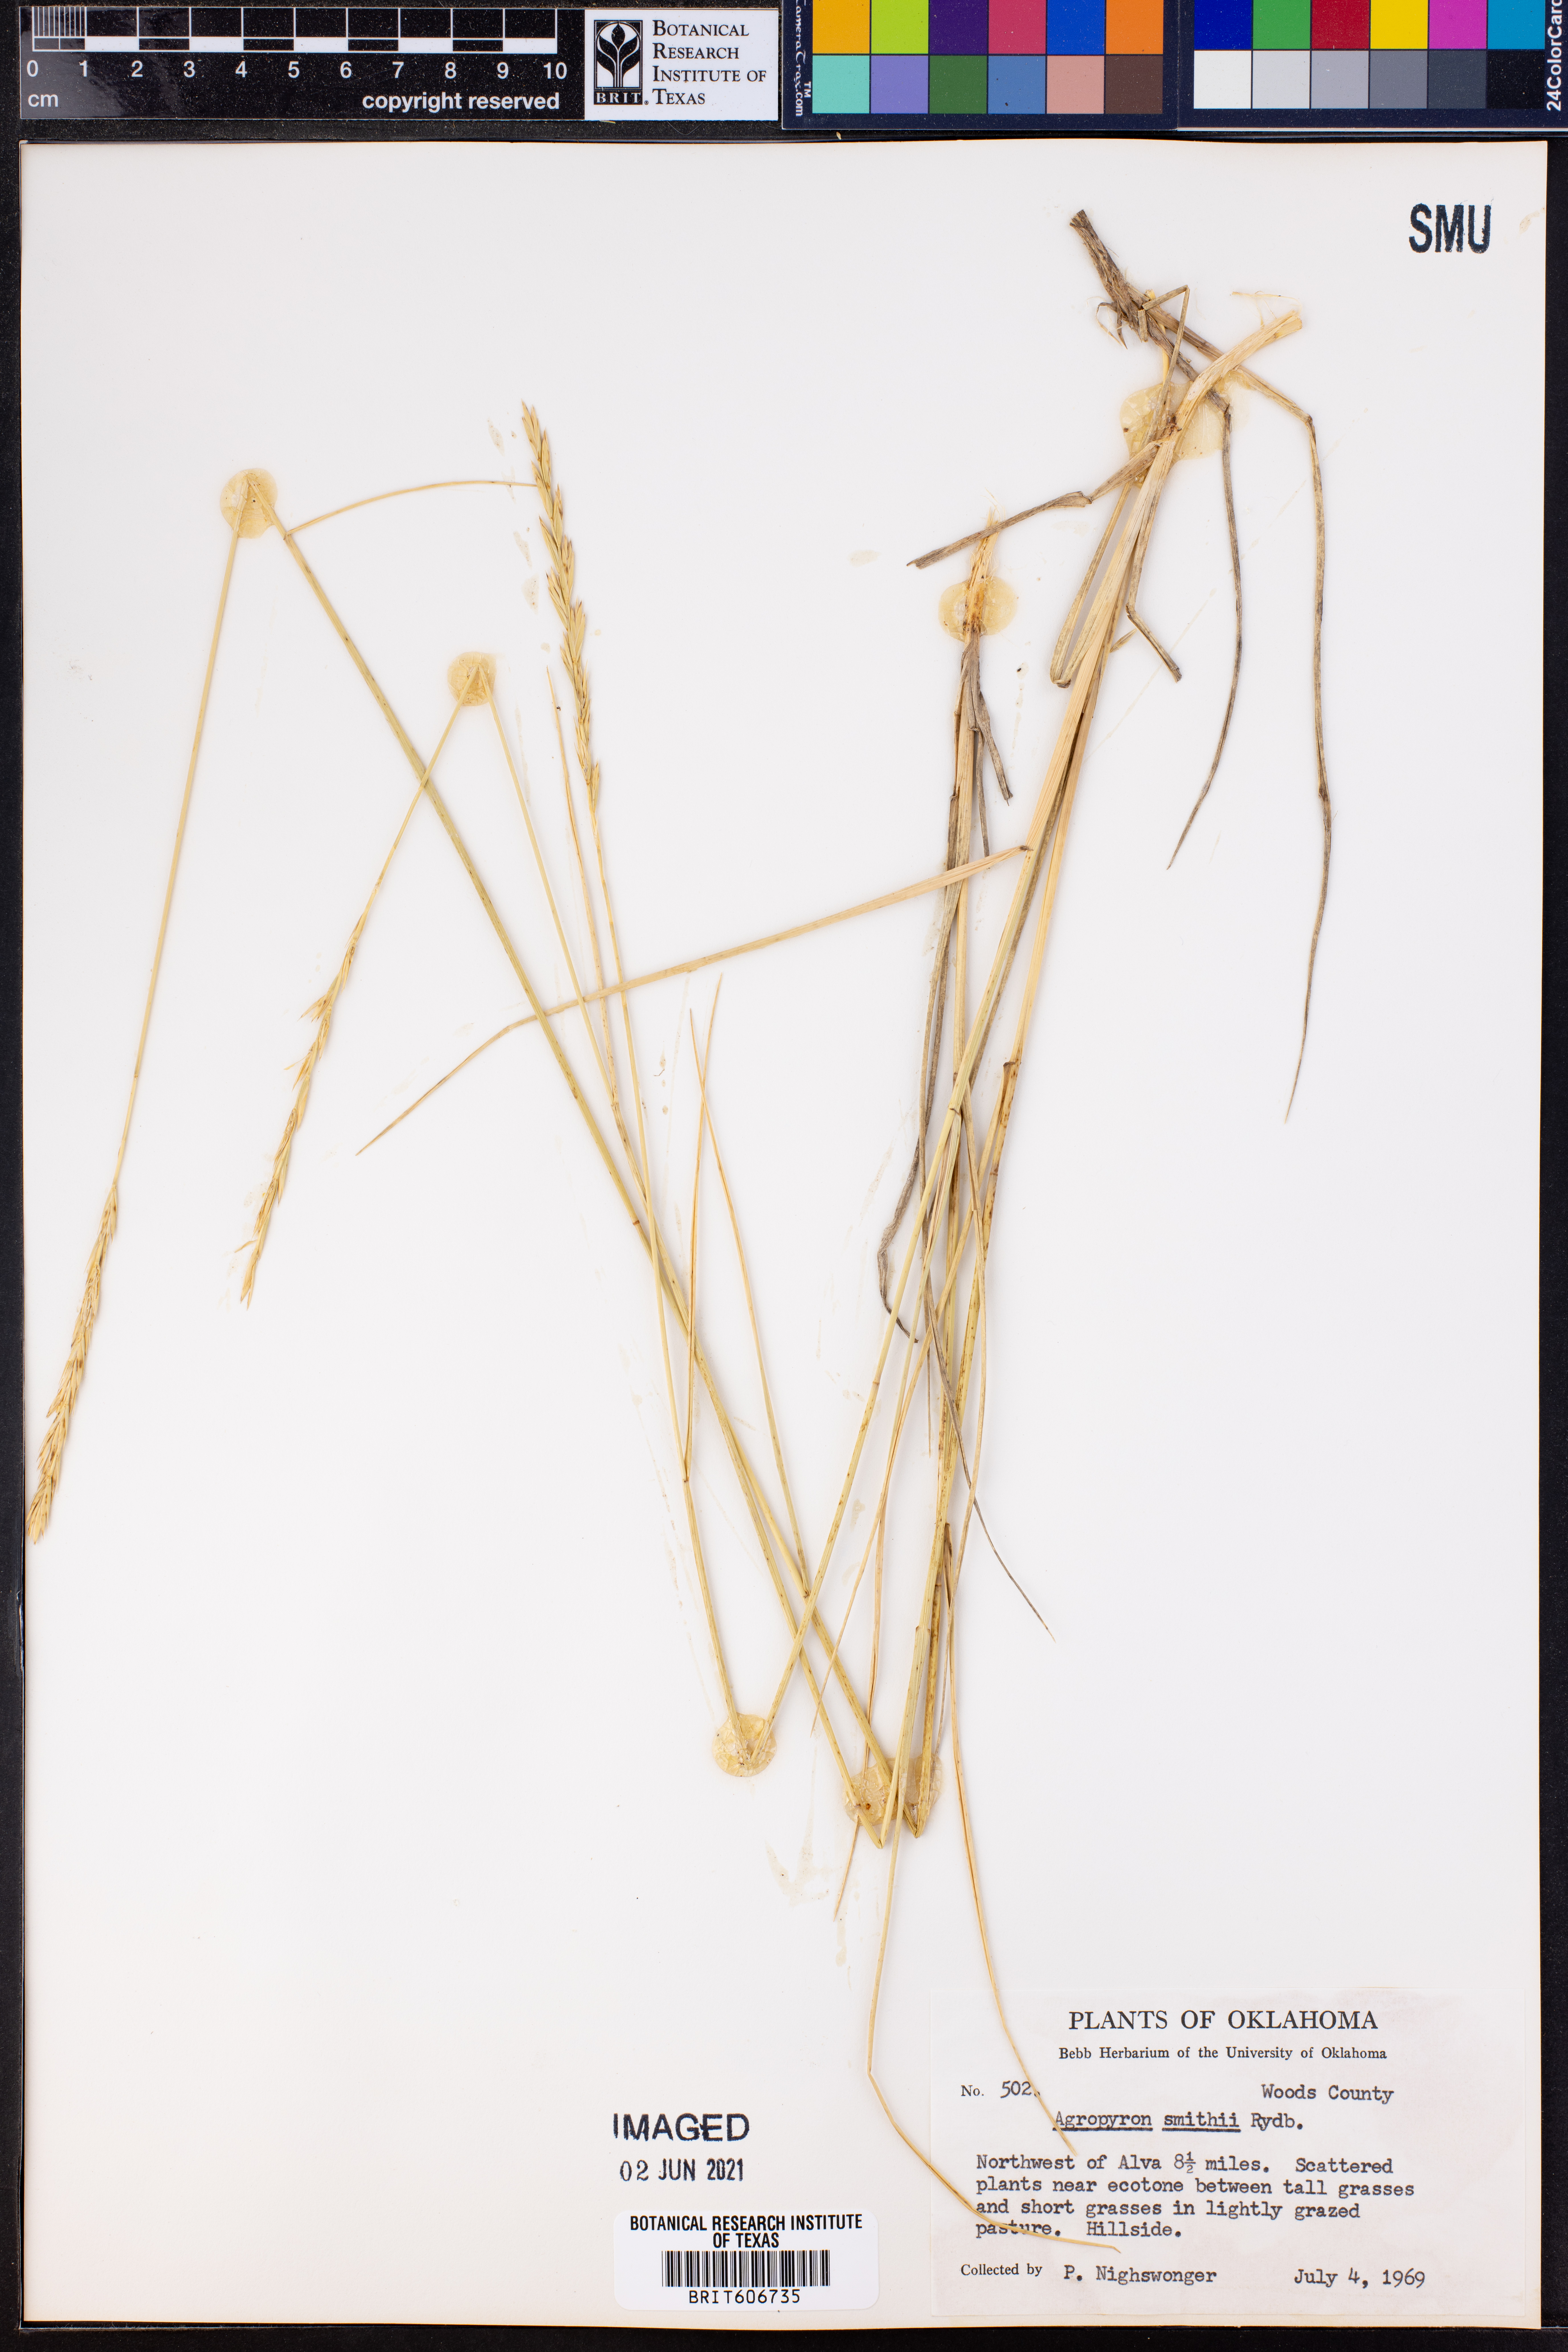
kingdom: Plantae
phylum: Tracheophyta
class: Liliopsida
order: Poales
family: Poaceae
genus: Elymus
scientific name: Elymus smithii
